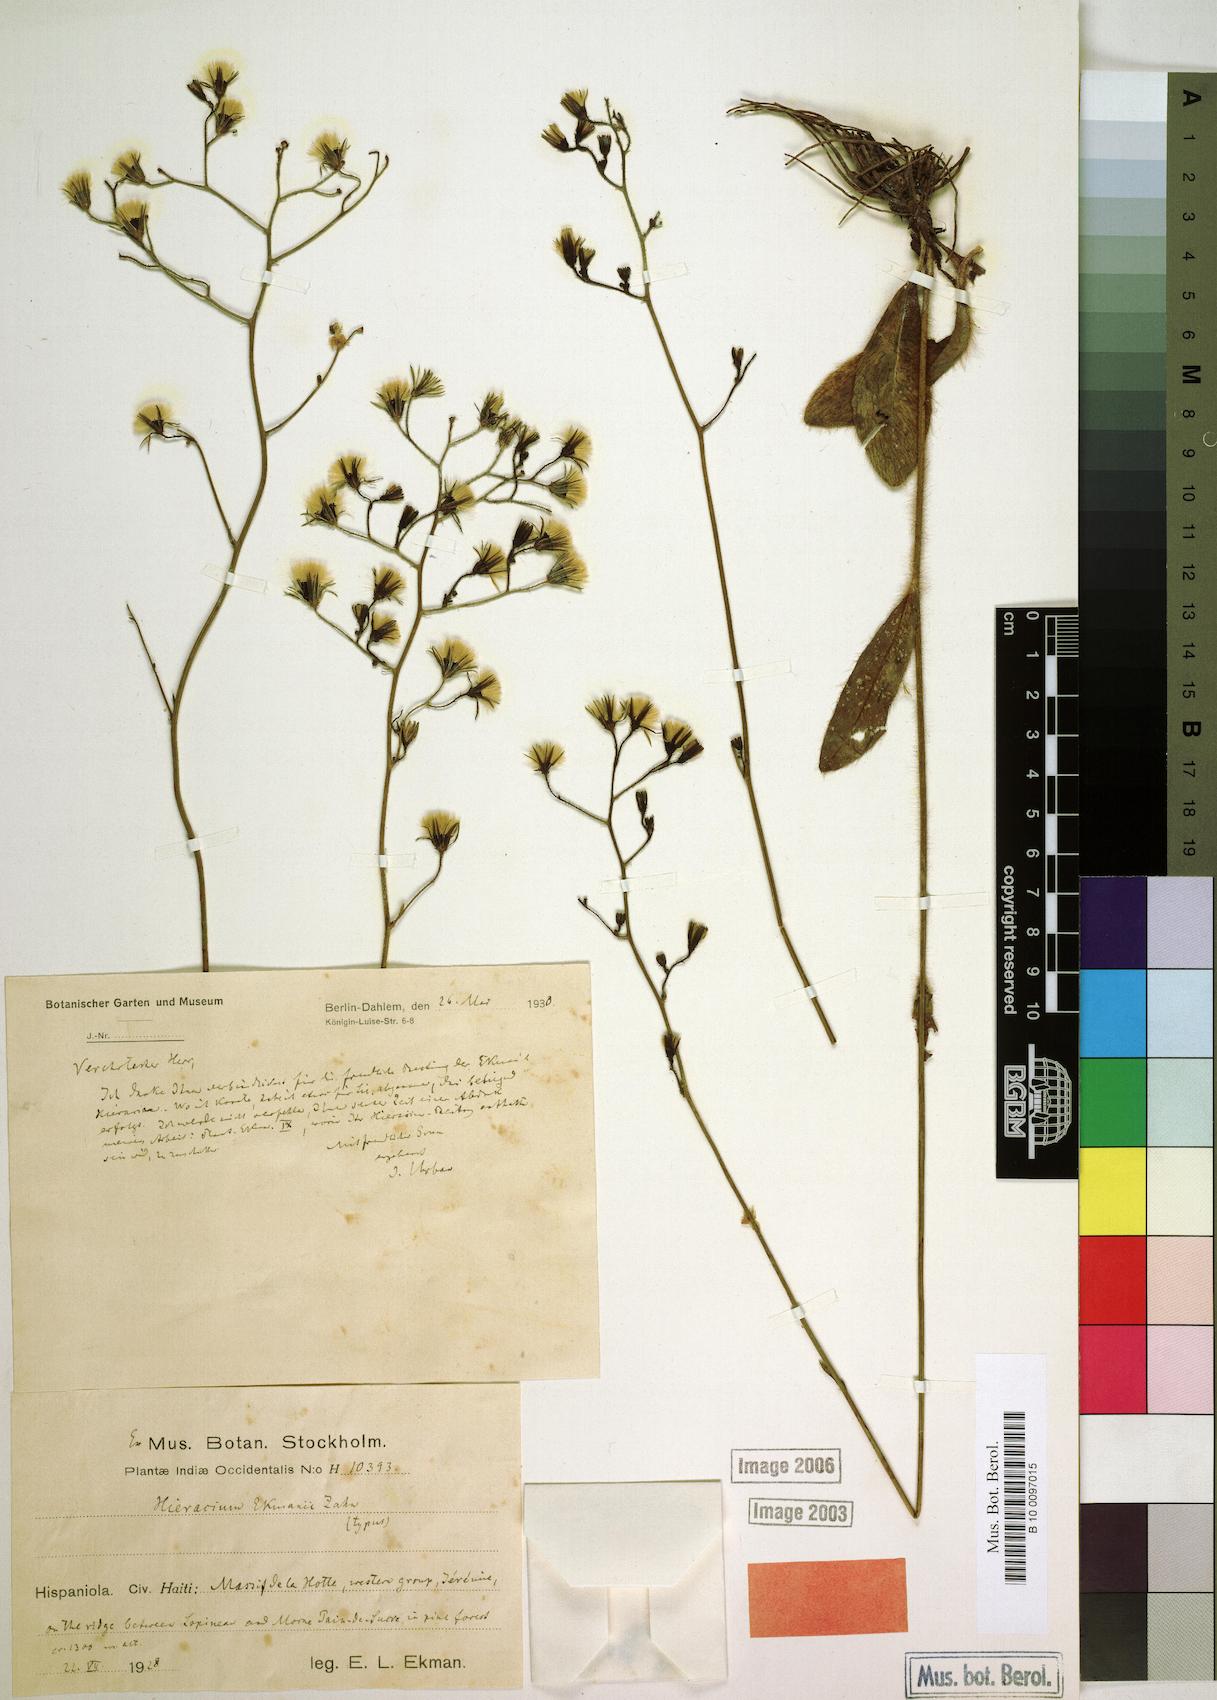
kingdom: Plantae
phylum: Tracheophyta
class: Magnoliopsida
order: Asterales
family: Asteraceae
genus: Hieracium
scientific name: Hieracium gronovii
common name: Beaked hawkweed
